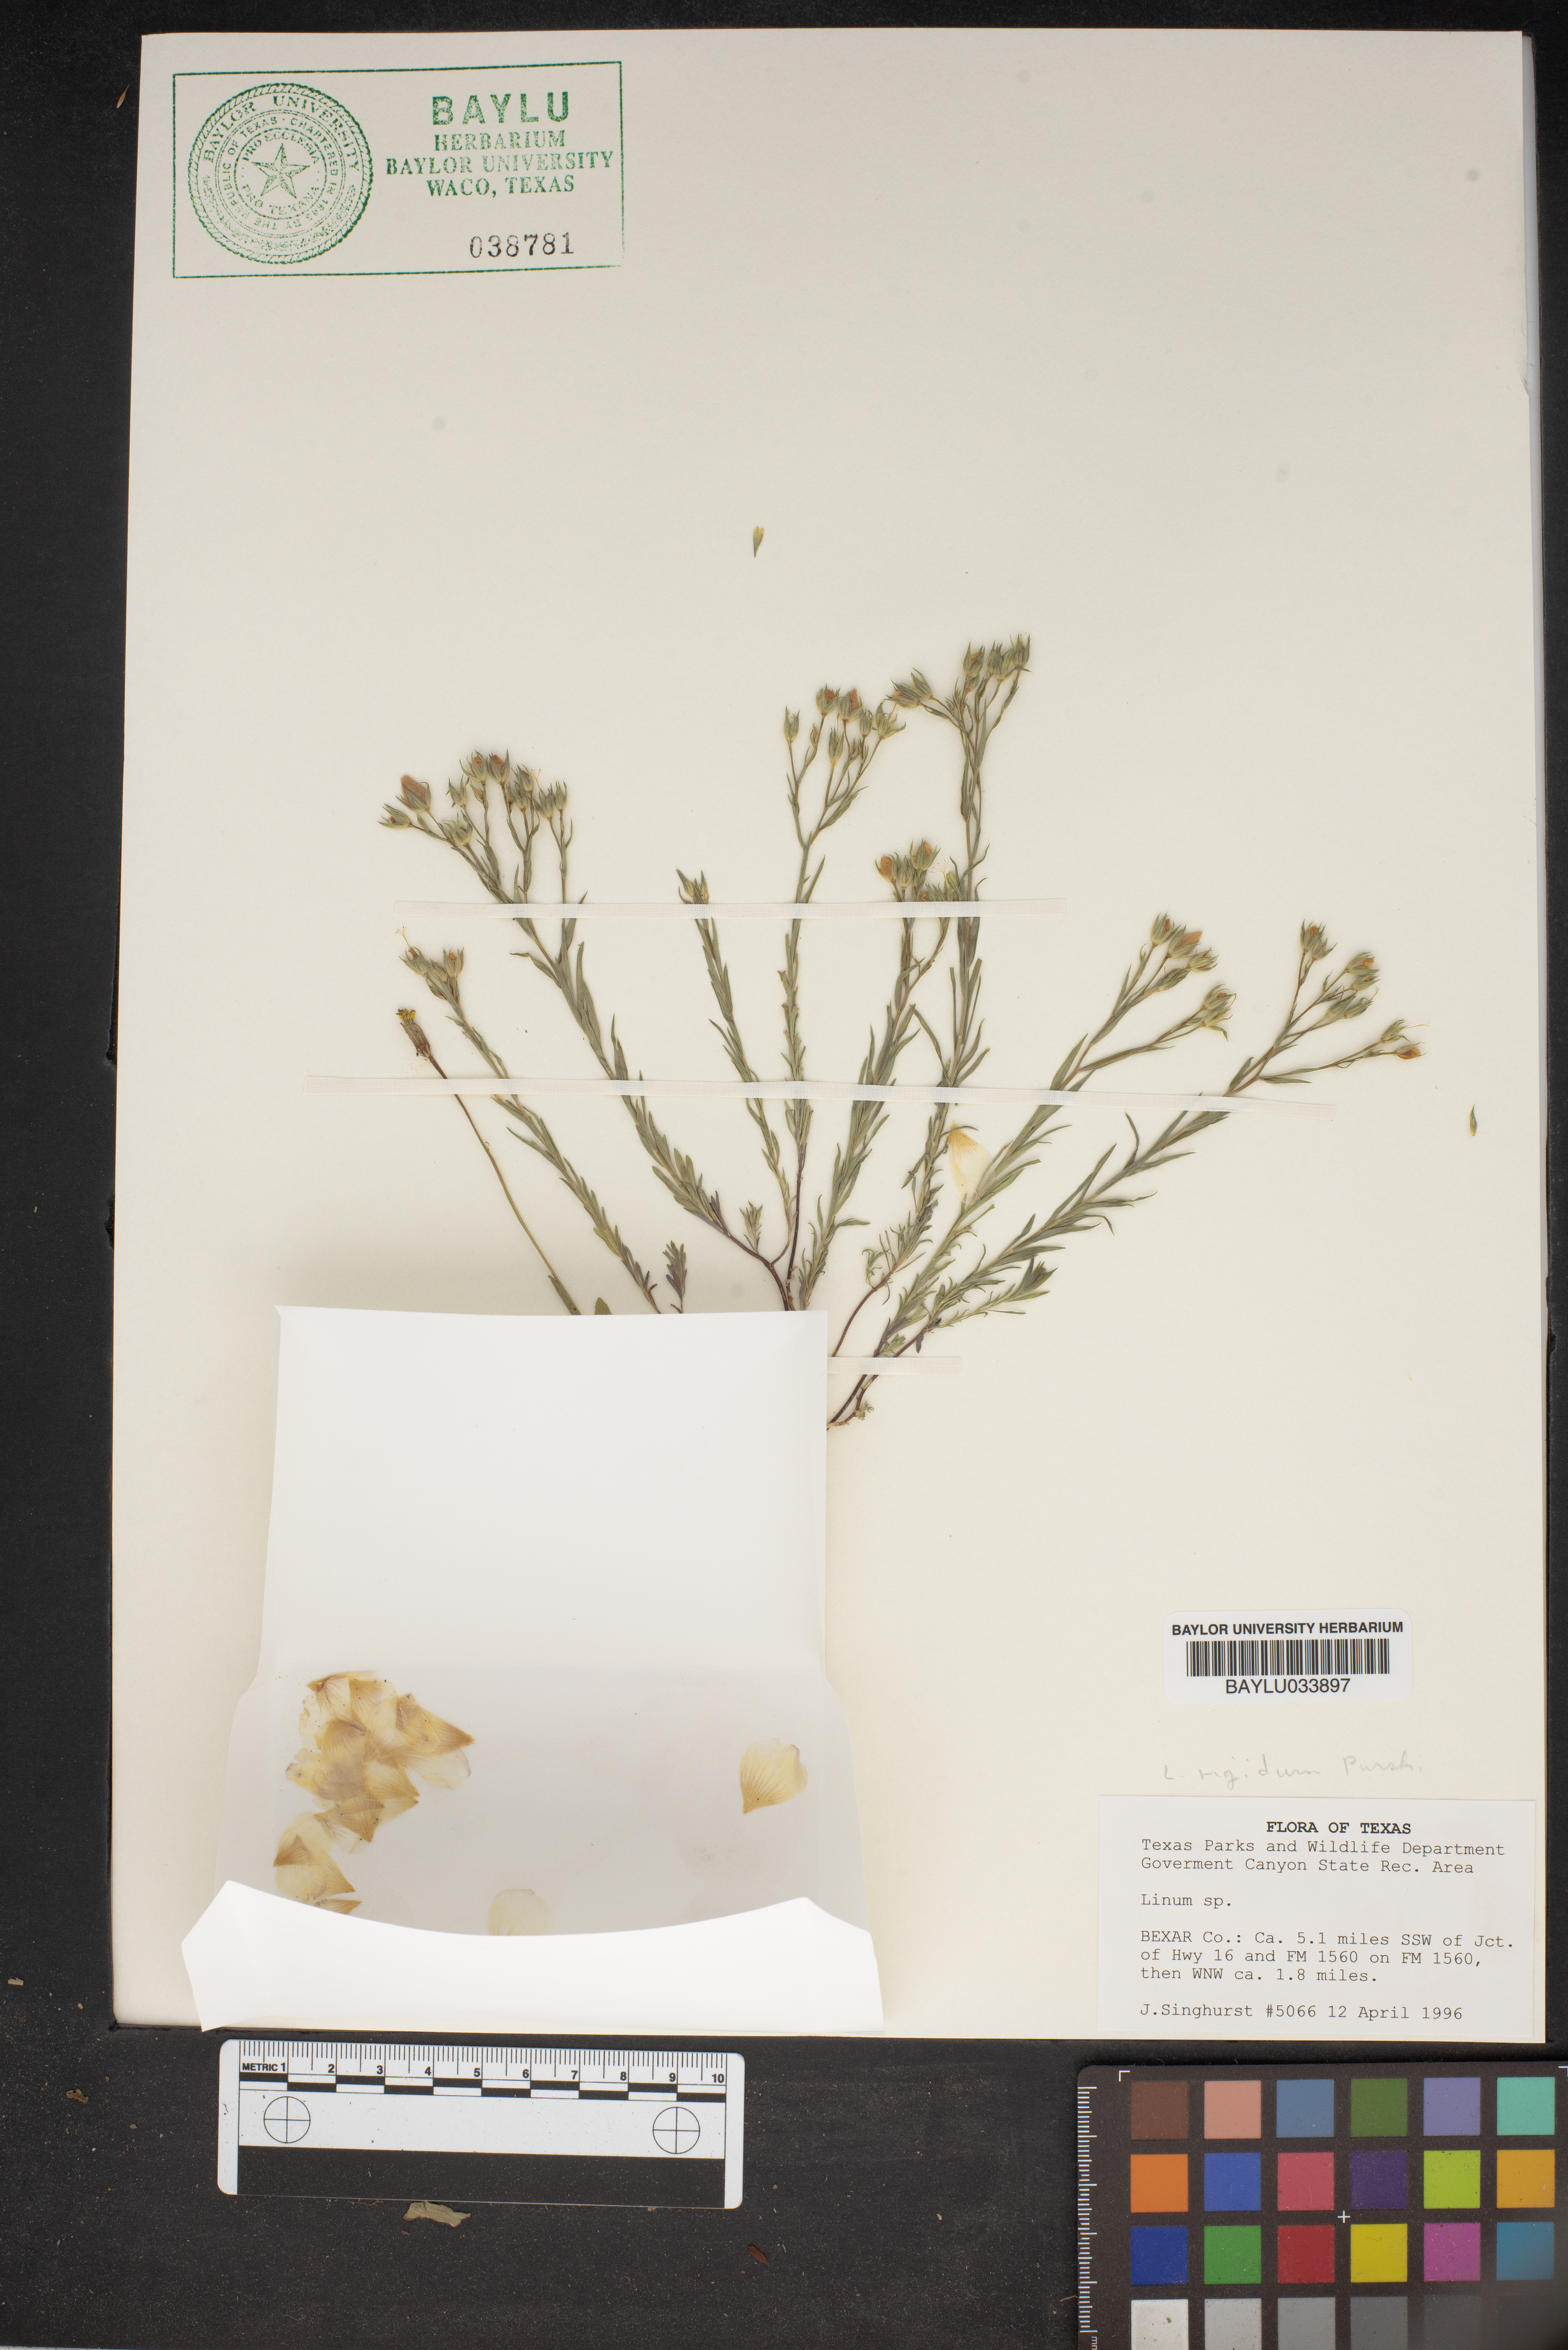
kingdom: Plantae
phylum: Tracheophyta
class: Magnoliopsida
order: Malpighiales
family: Linaceae
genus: Linum
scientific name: Linum
